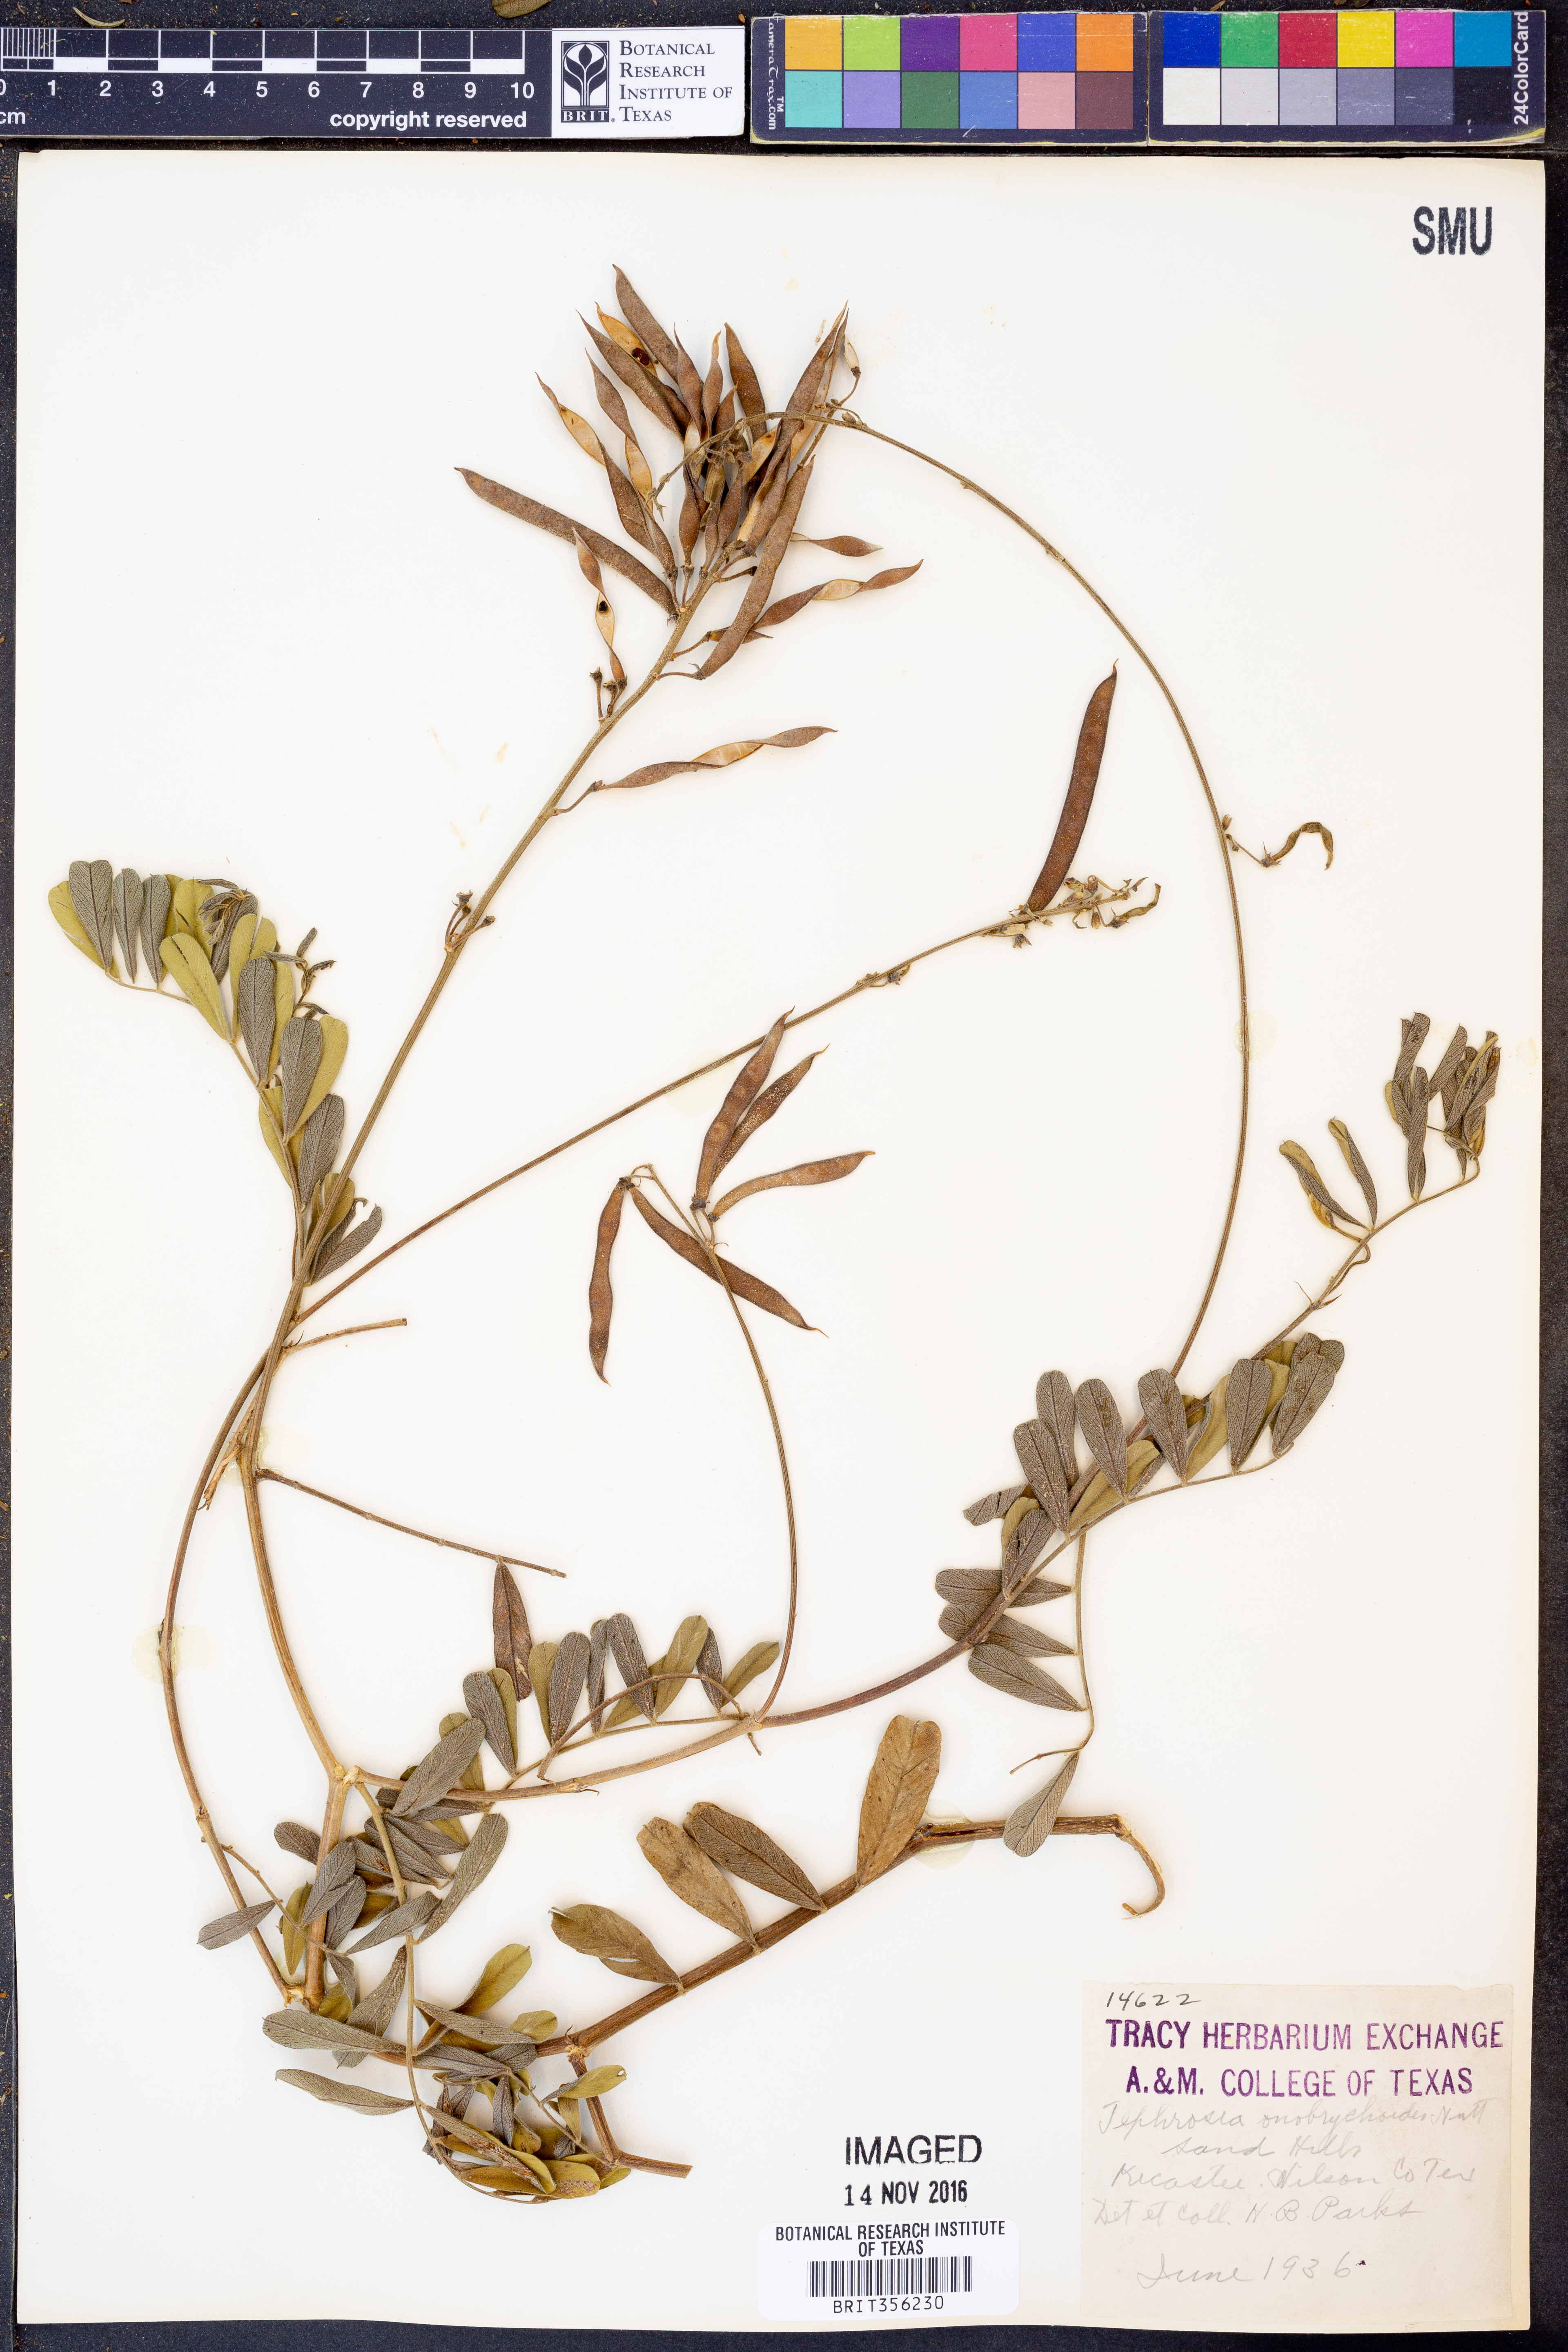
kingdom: Plantae
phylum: Tracheophyta
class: Magnoliopsida
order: Fabales
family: Fabaceae
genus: Tephrosia
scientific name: Tephrosia onobrychoides
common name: Multi-bloom hoary-pea
